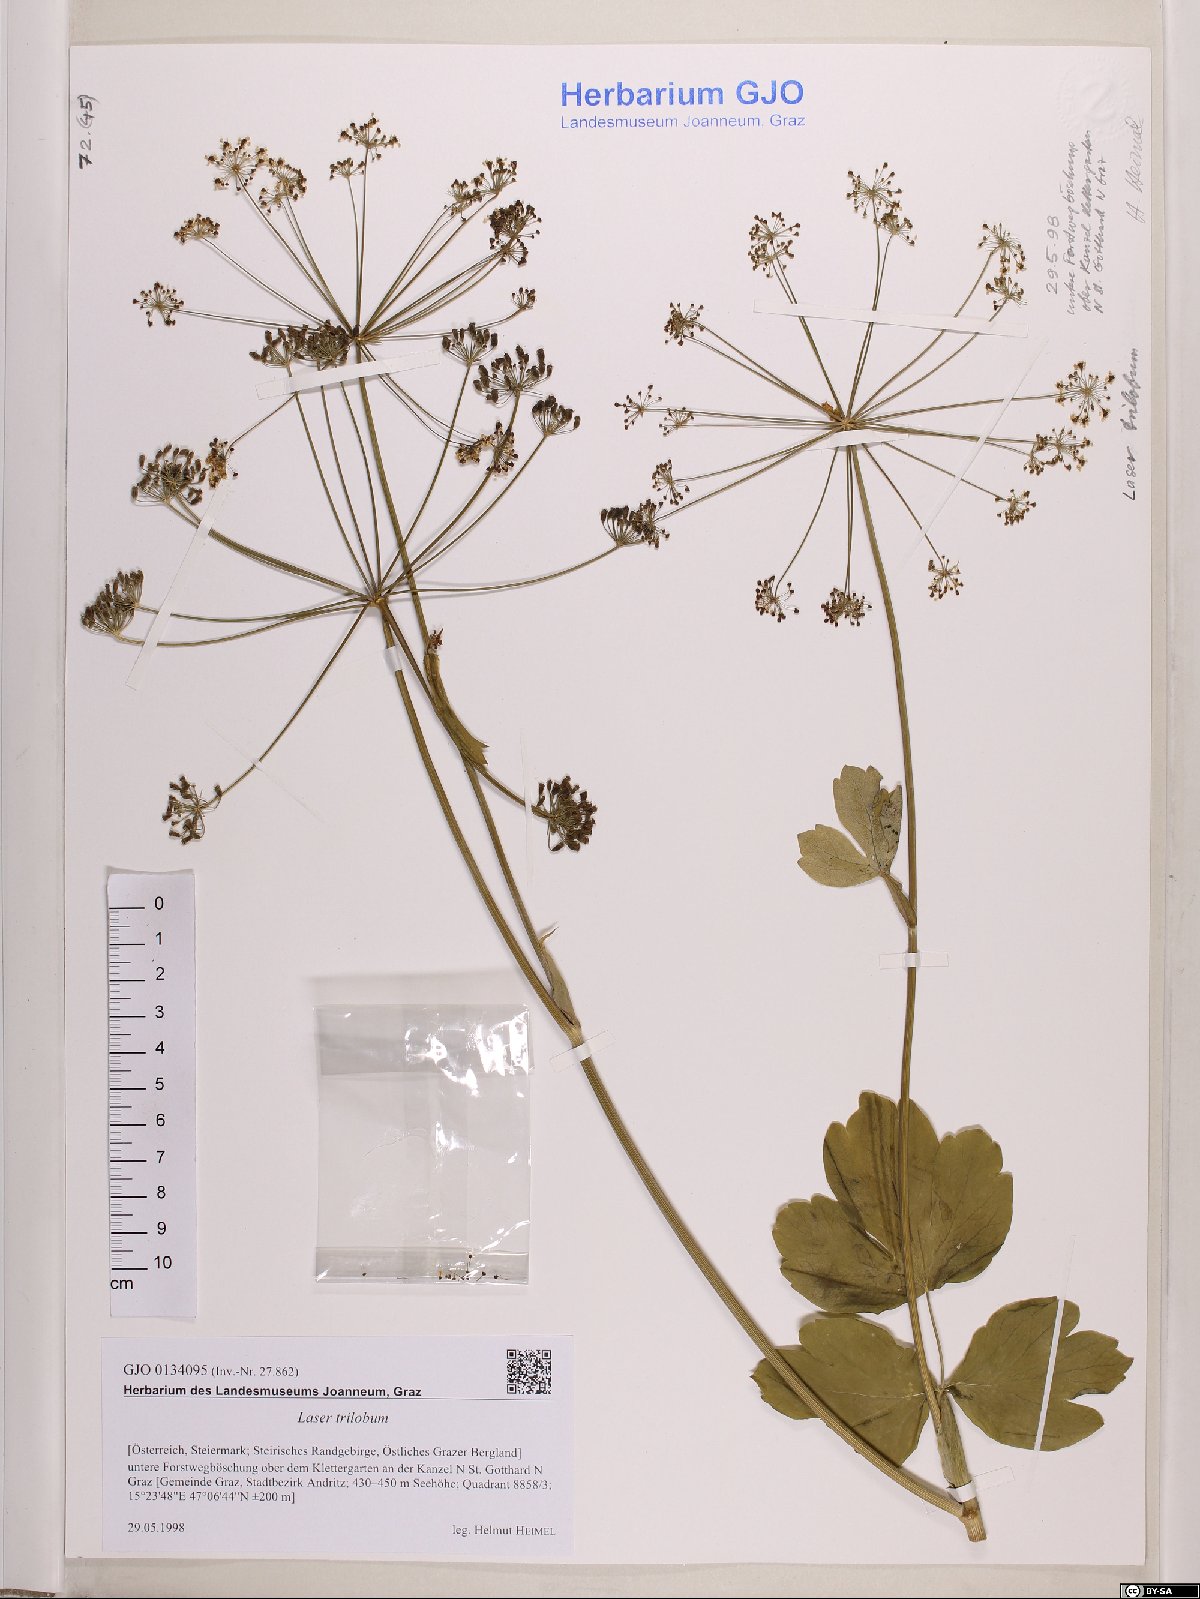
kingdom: Plantae
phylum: Tracheophyta
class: Magnoliopsida
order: Apiales
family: Apiaceae
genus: Laser
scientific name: Laser trilobum
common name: Laser
